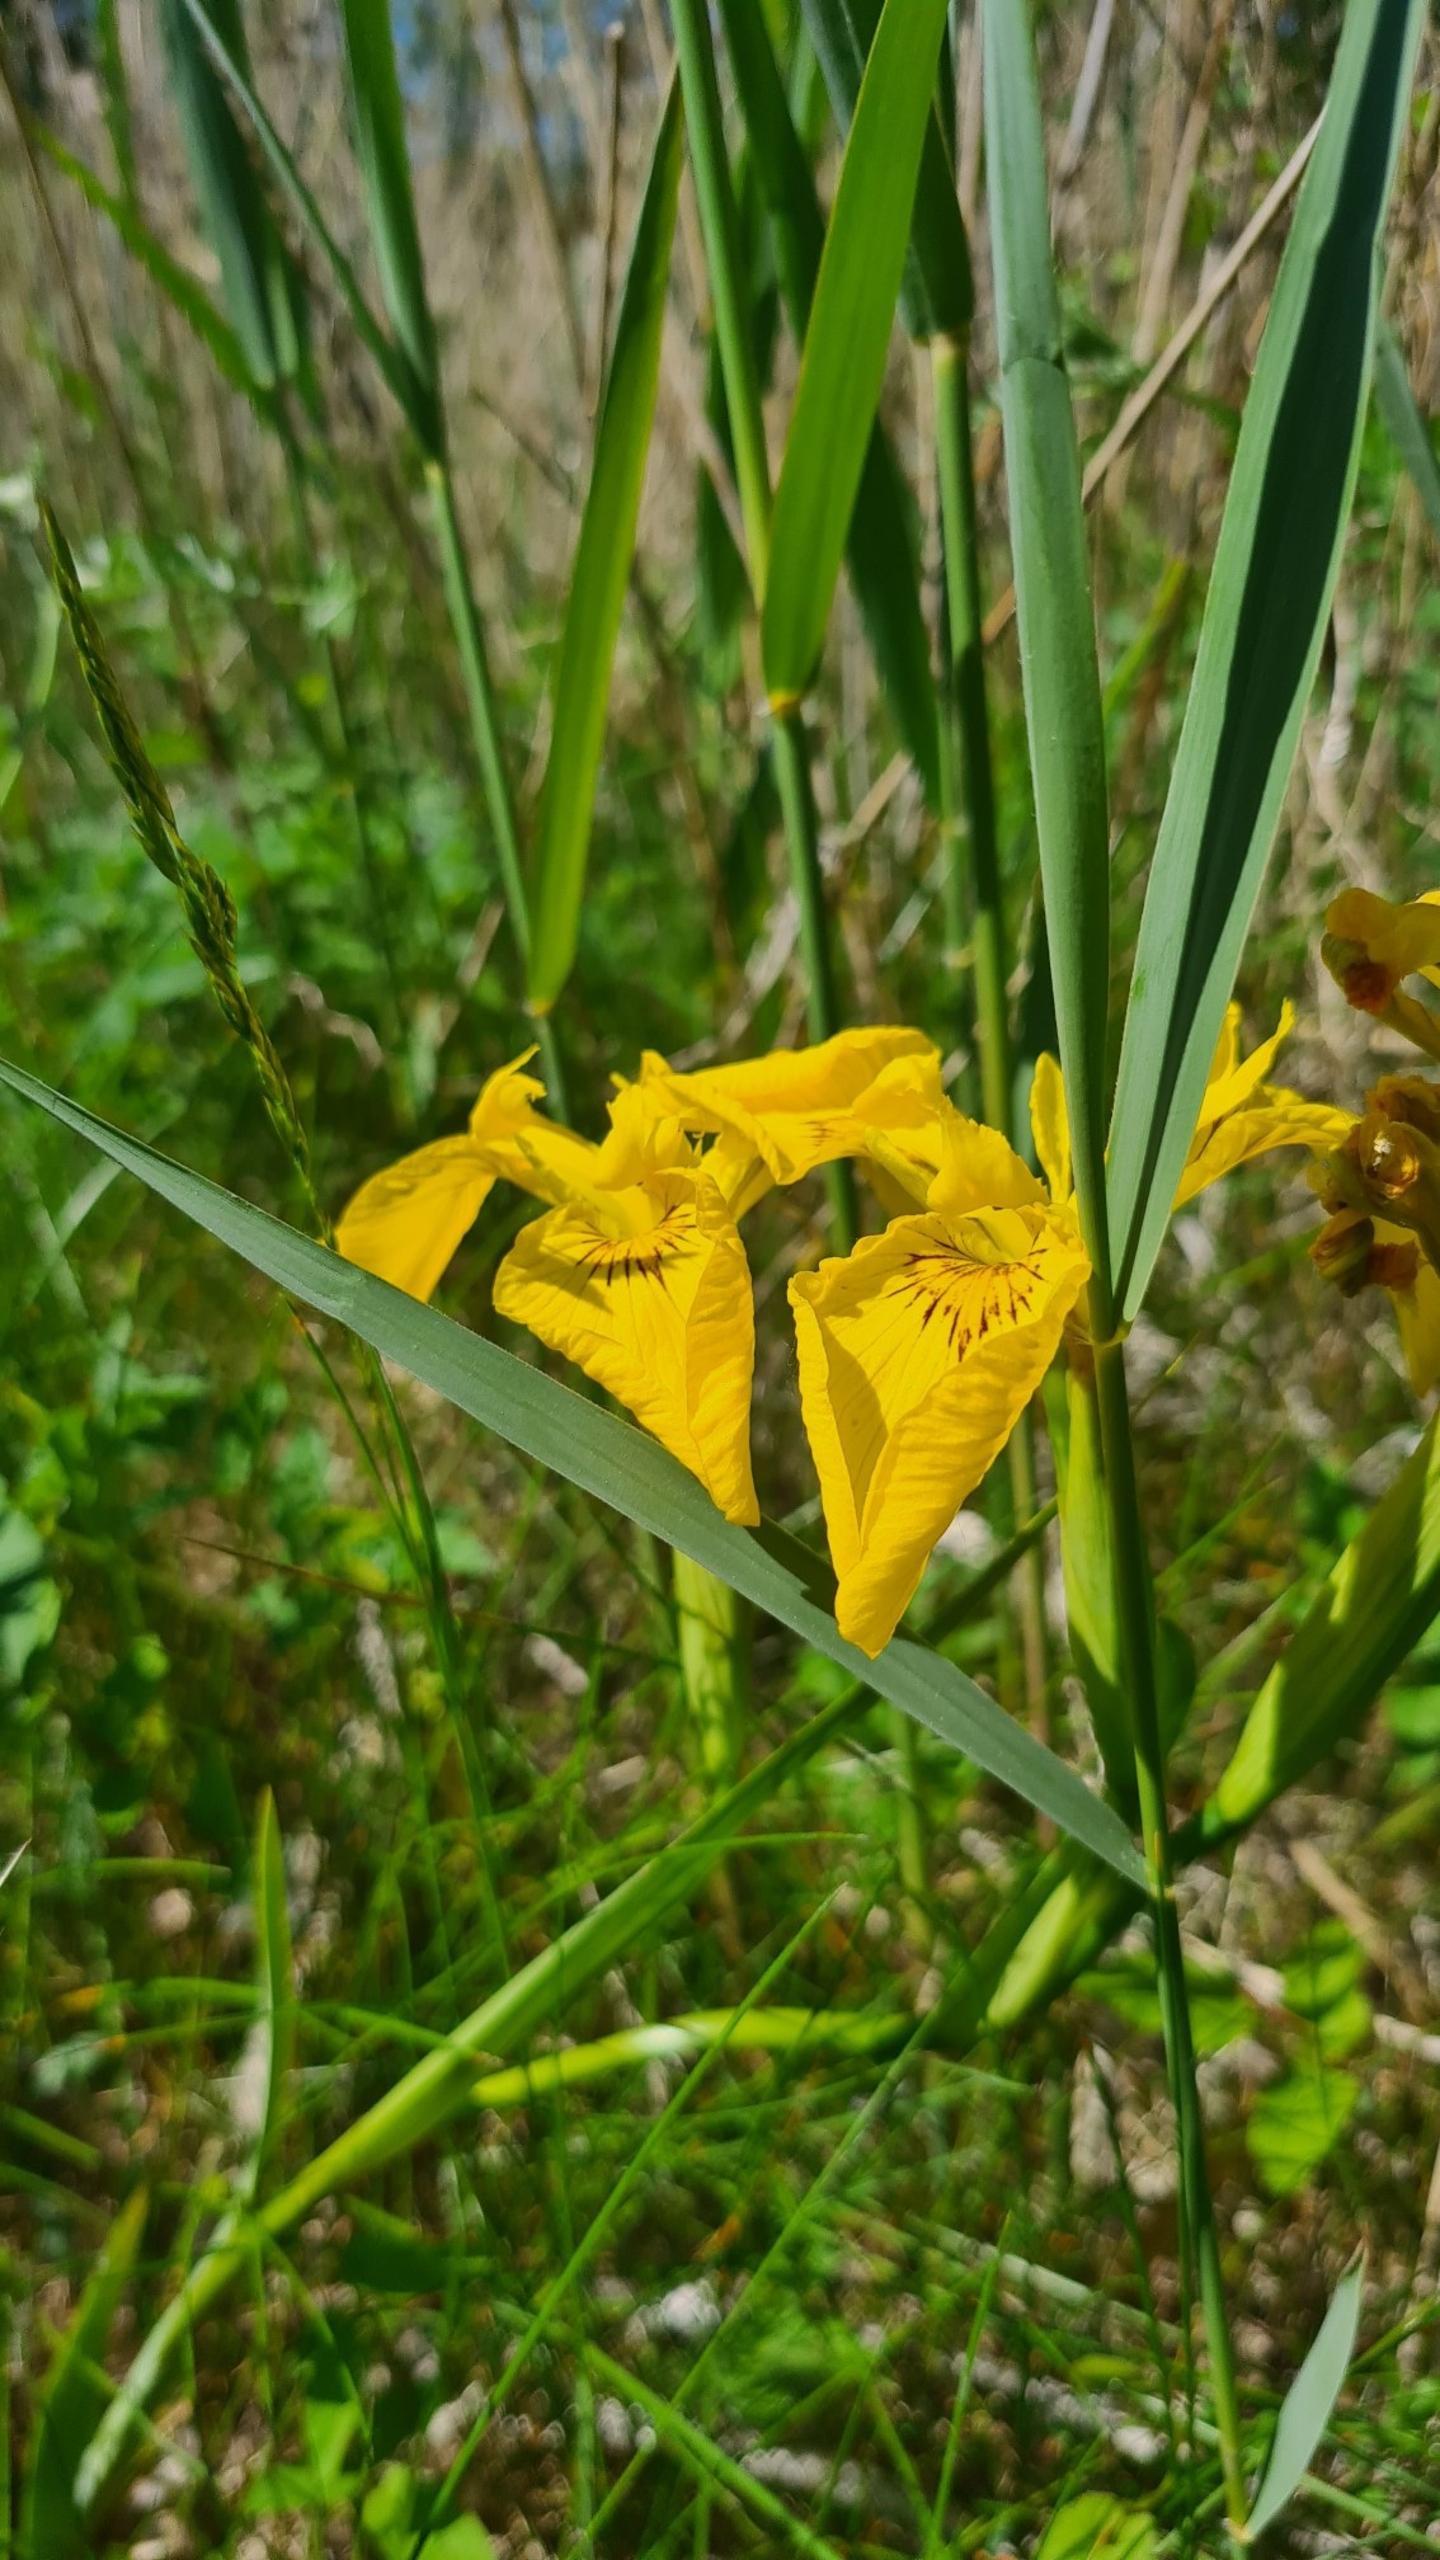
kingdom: Plantae
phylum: Tracheophyta
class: Liliopsida
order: Asparagales
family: Iridaceae
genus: Iris
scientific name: Iris pseudacorus
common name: Gul iris
